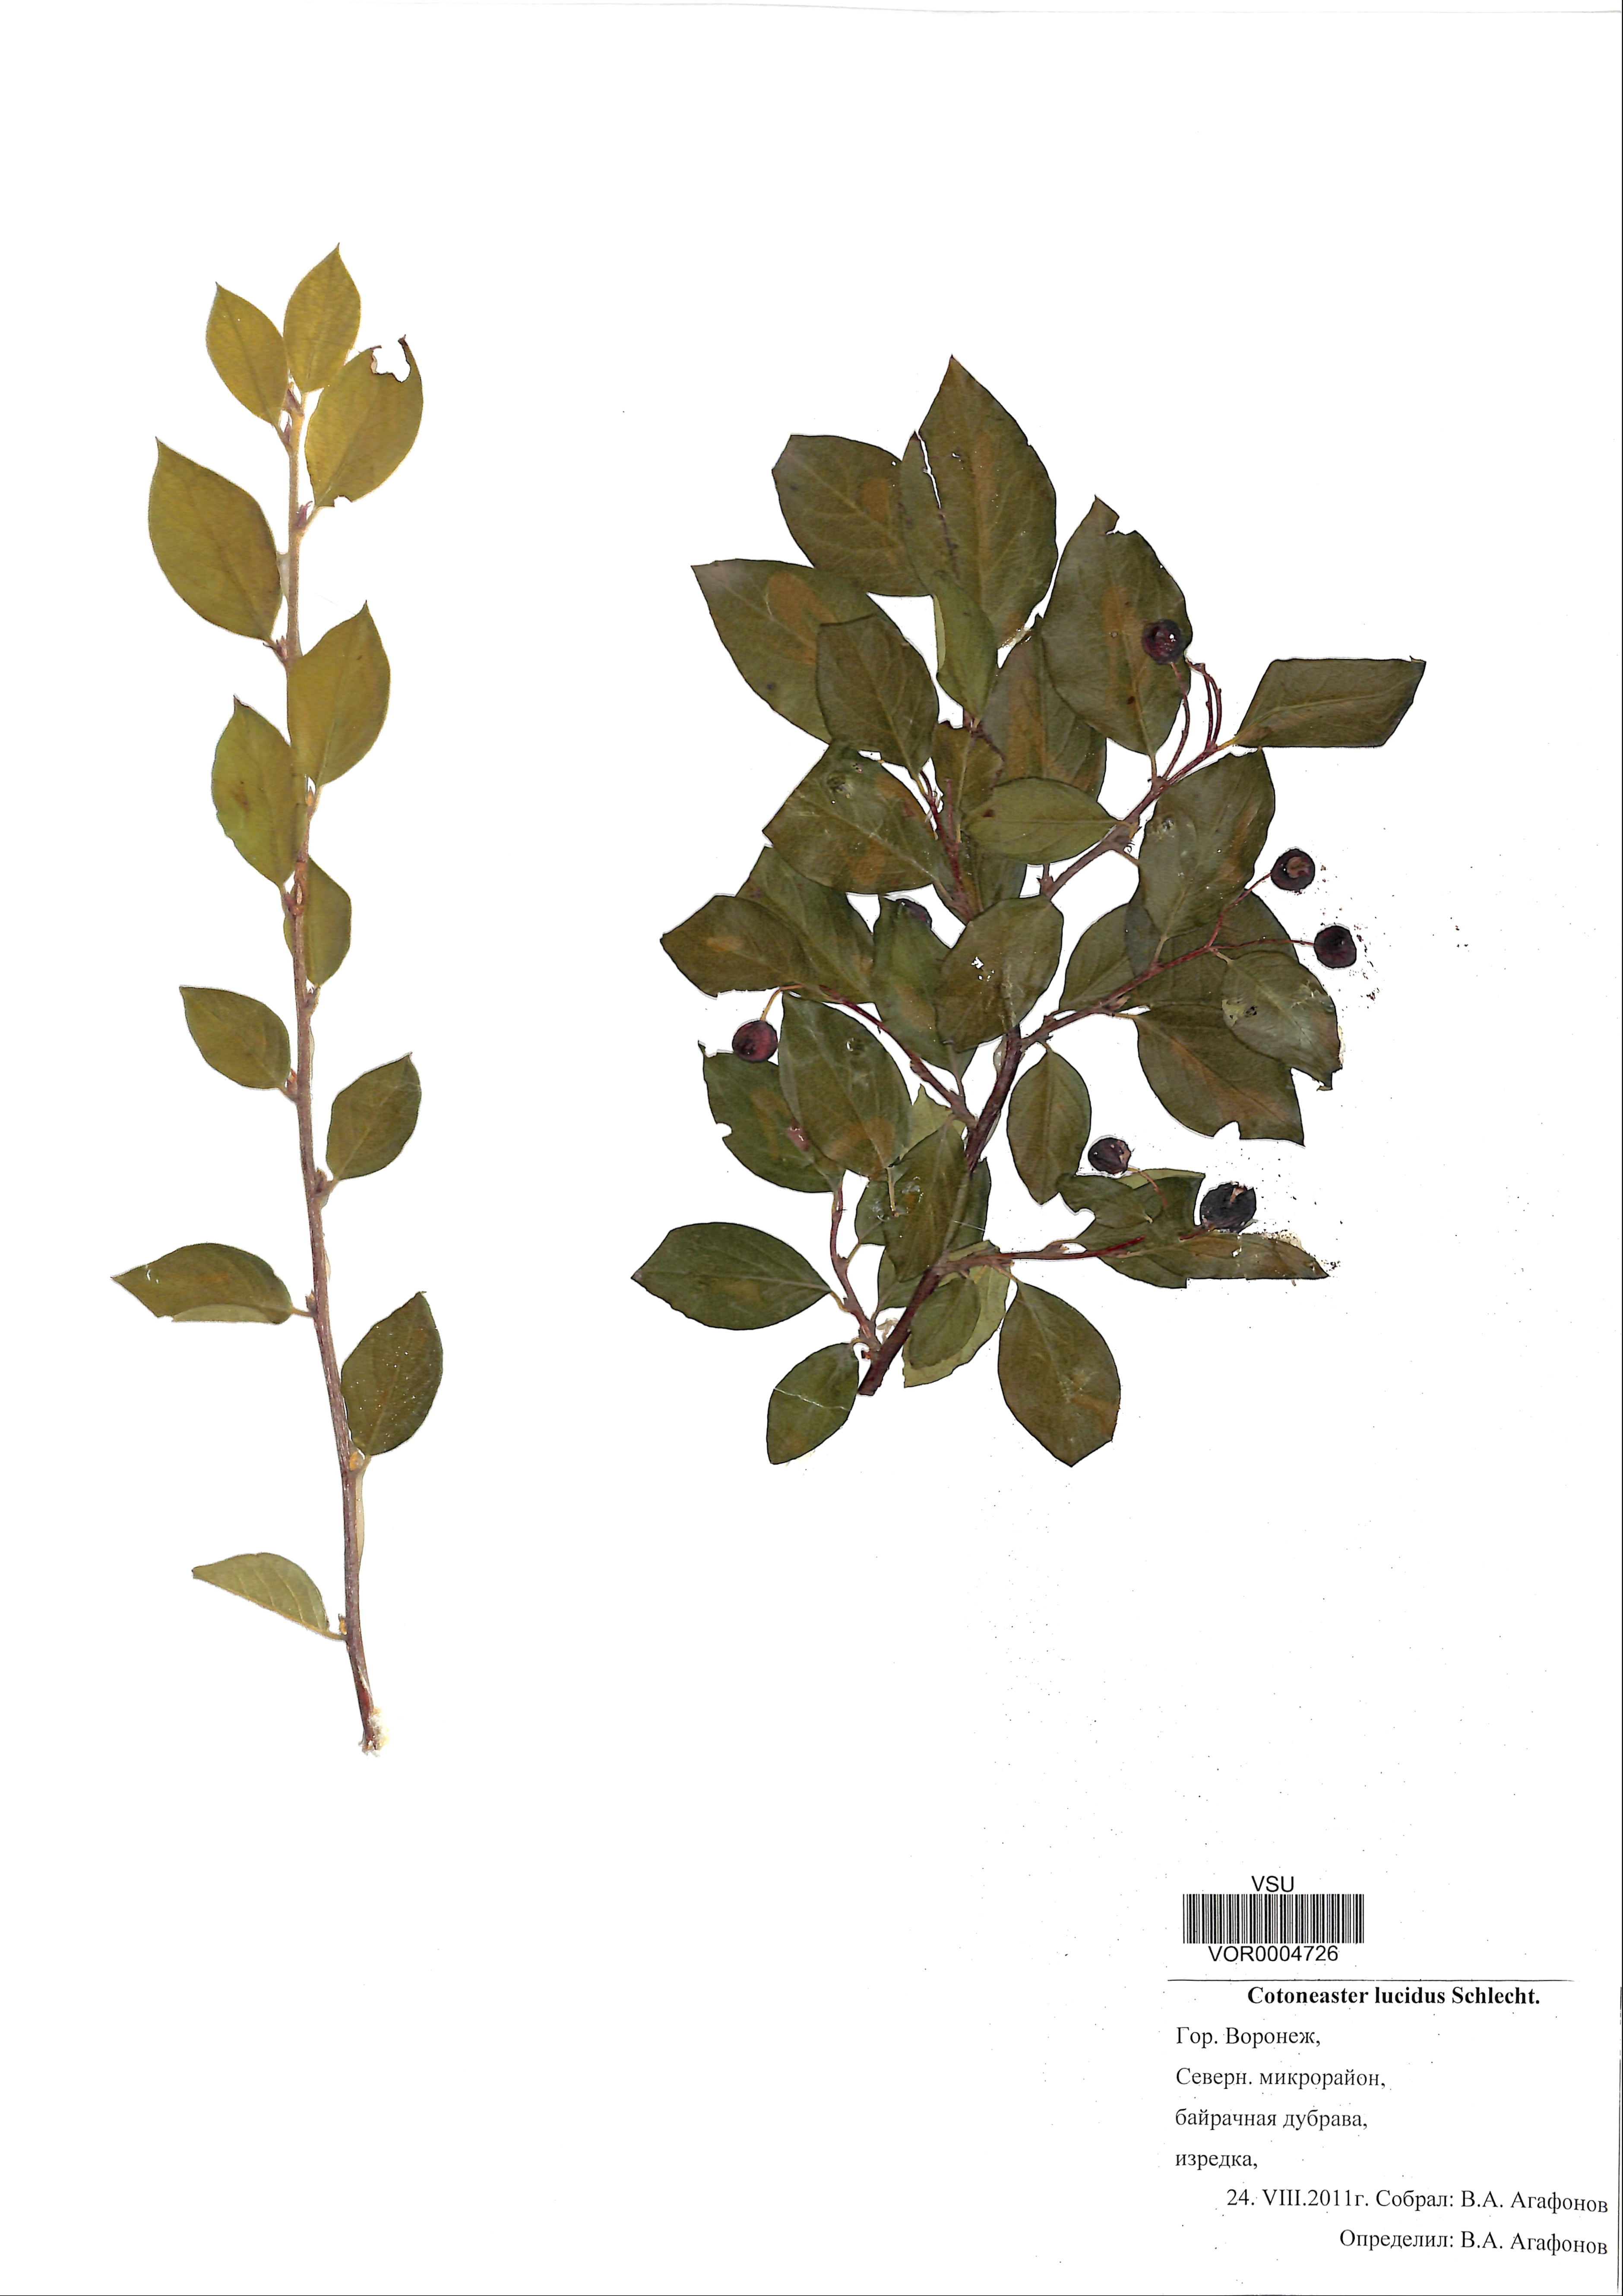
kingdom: Plantae
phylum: Tracheophyta
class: Magnoliopsida
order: Rosales
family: Rosaceae
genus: Cotoneaster
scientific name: Cotoneaster acutifolius
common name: Peking cotoneaster
